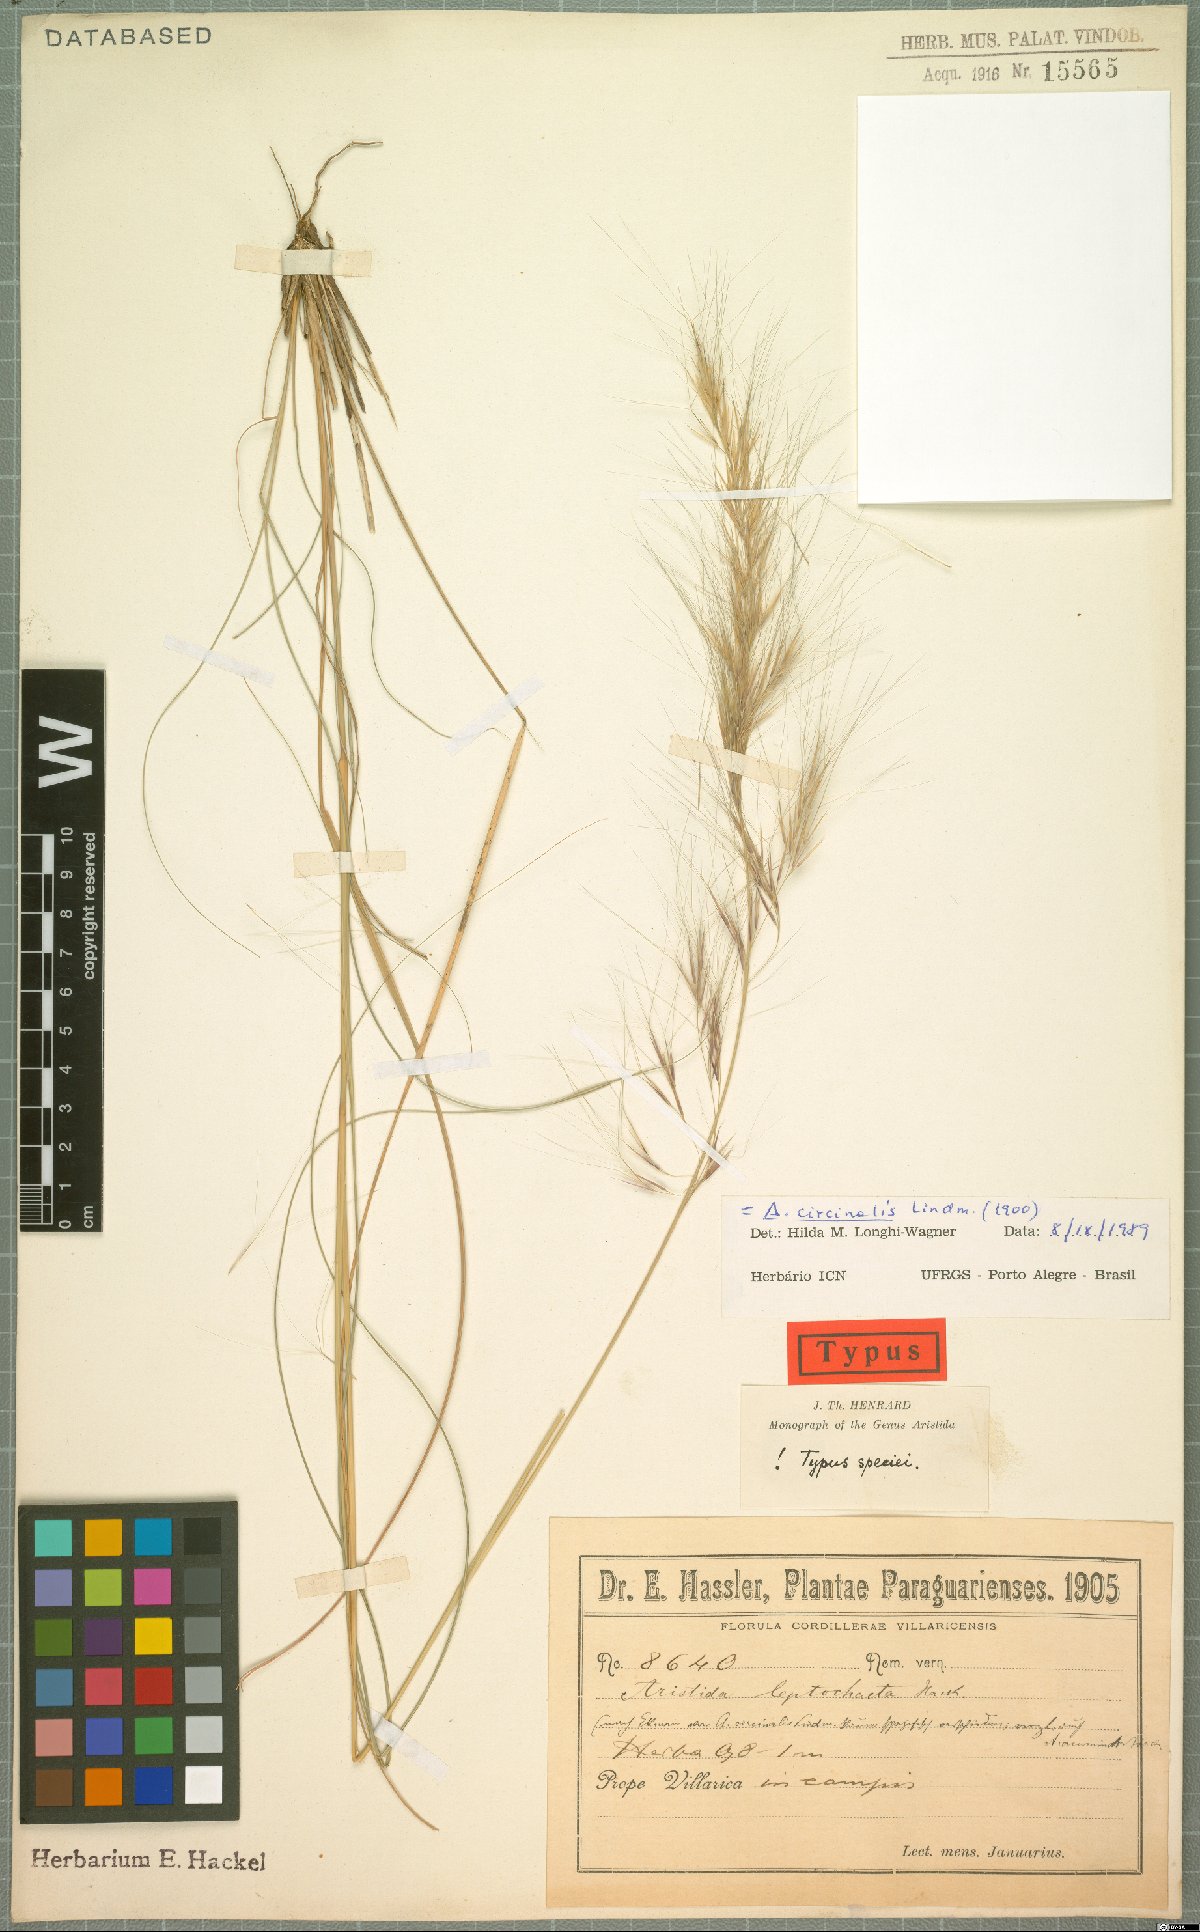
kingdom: Plantae
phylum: Tracheophyta
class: Liliopsida
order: Poales
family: Poaceae
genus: Aristida
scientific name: Aristida circinalis
